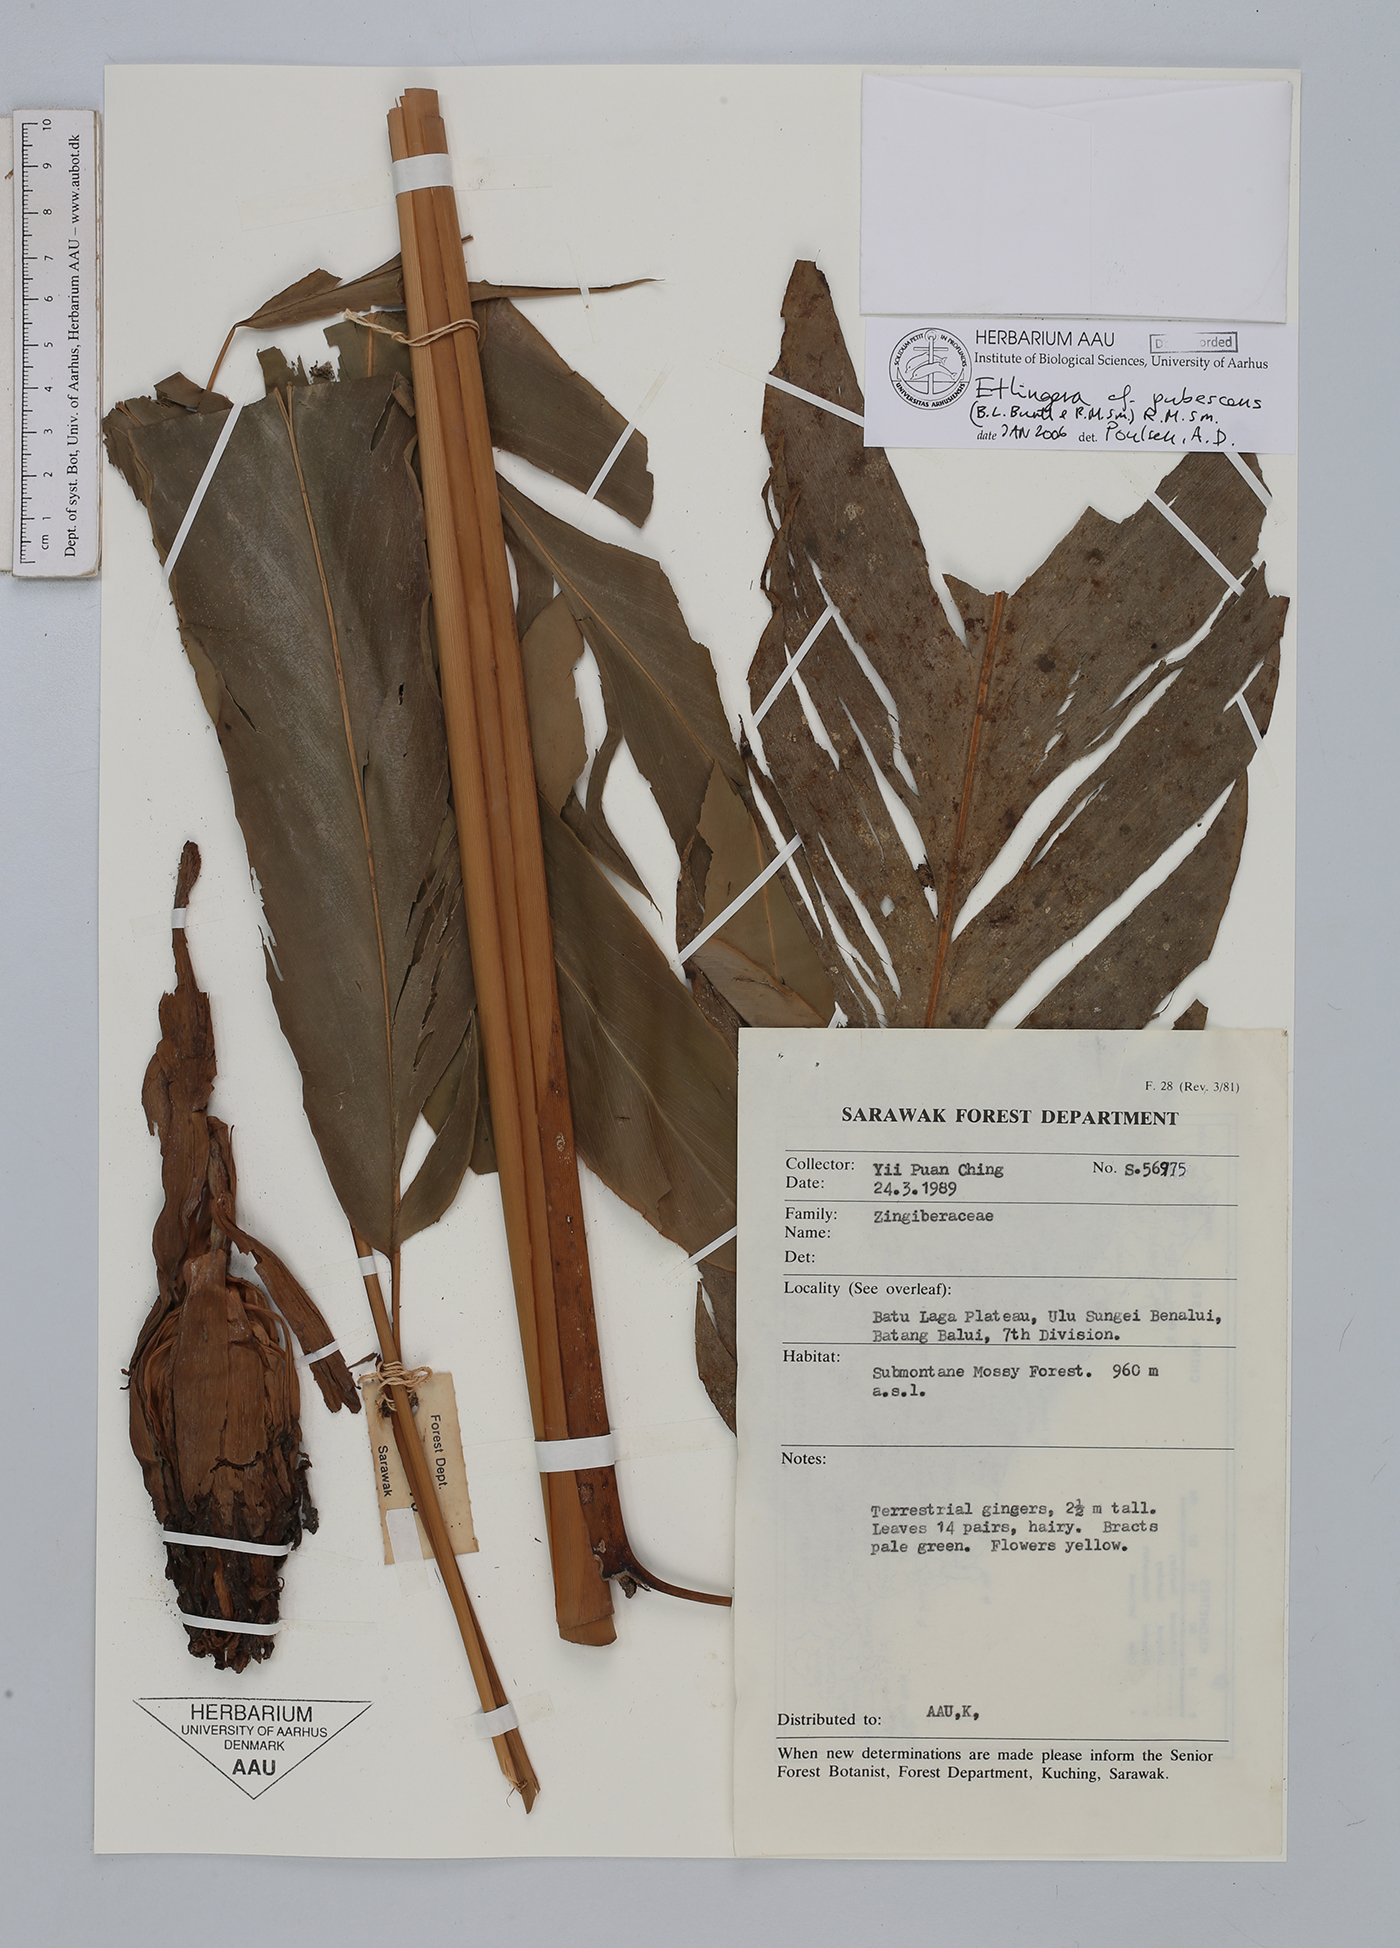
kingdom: Plantae
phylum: Tracheophyta
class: Liliopsida
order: Zingiberales
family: Zingiberaceae
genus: Etlingera
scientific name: Etlingera pubescens
